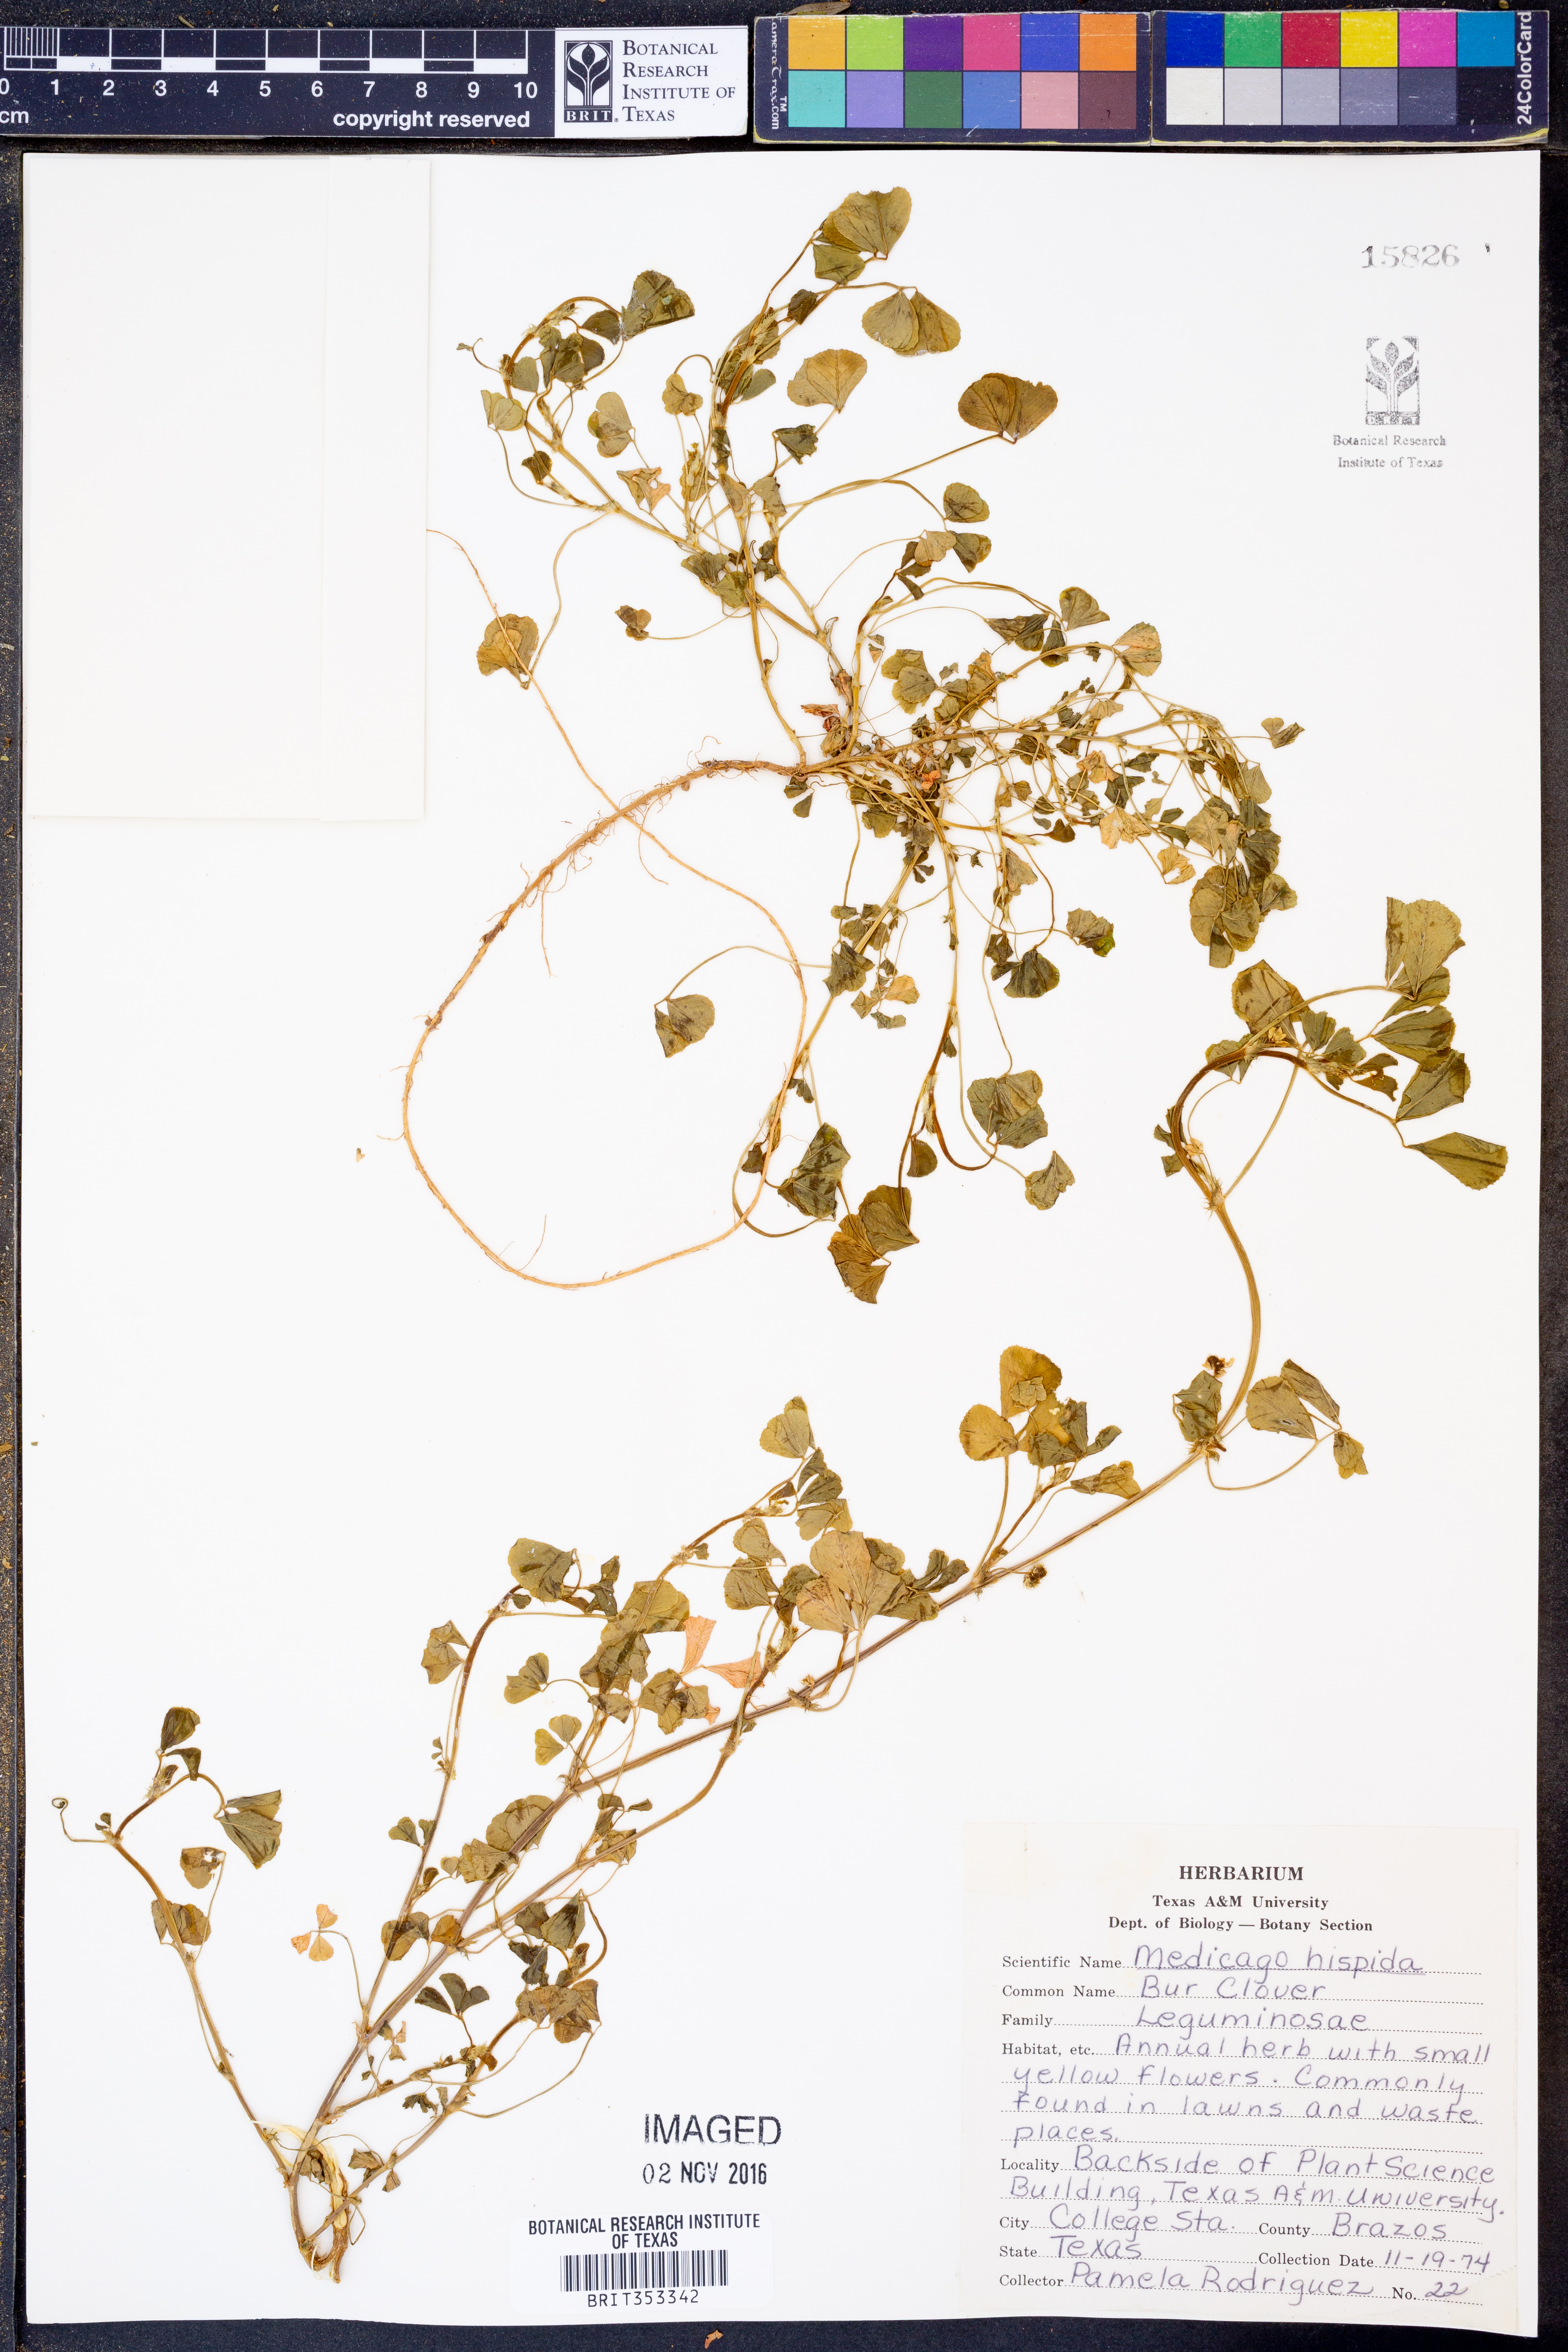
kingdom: Plantae
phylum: Tracheophyta
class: Magnoliopsida
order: Fabales
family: Fabaceae
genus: Medicago
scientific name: Medicago polymorpha
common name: Burclover
